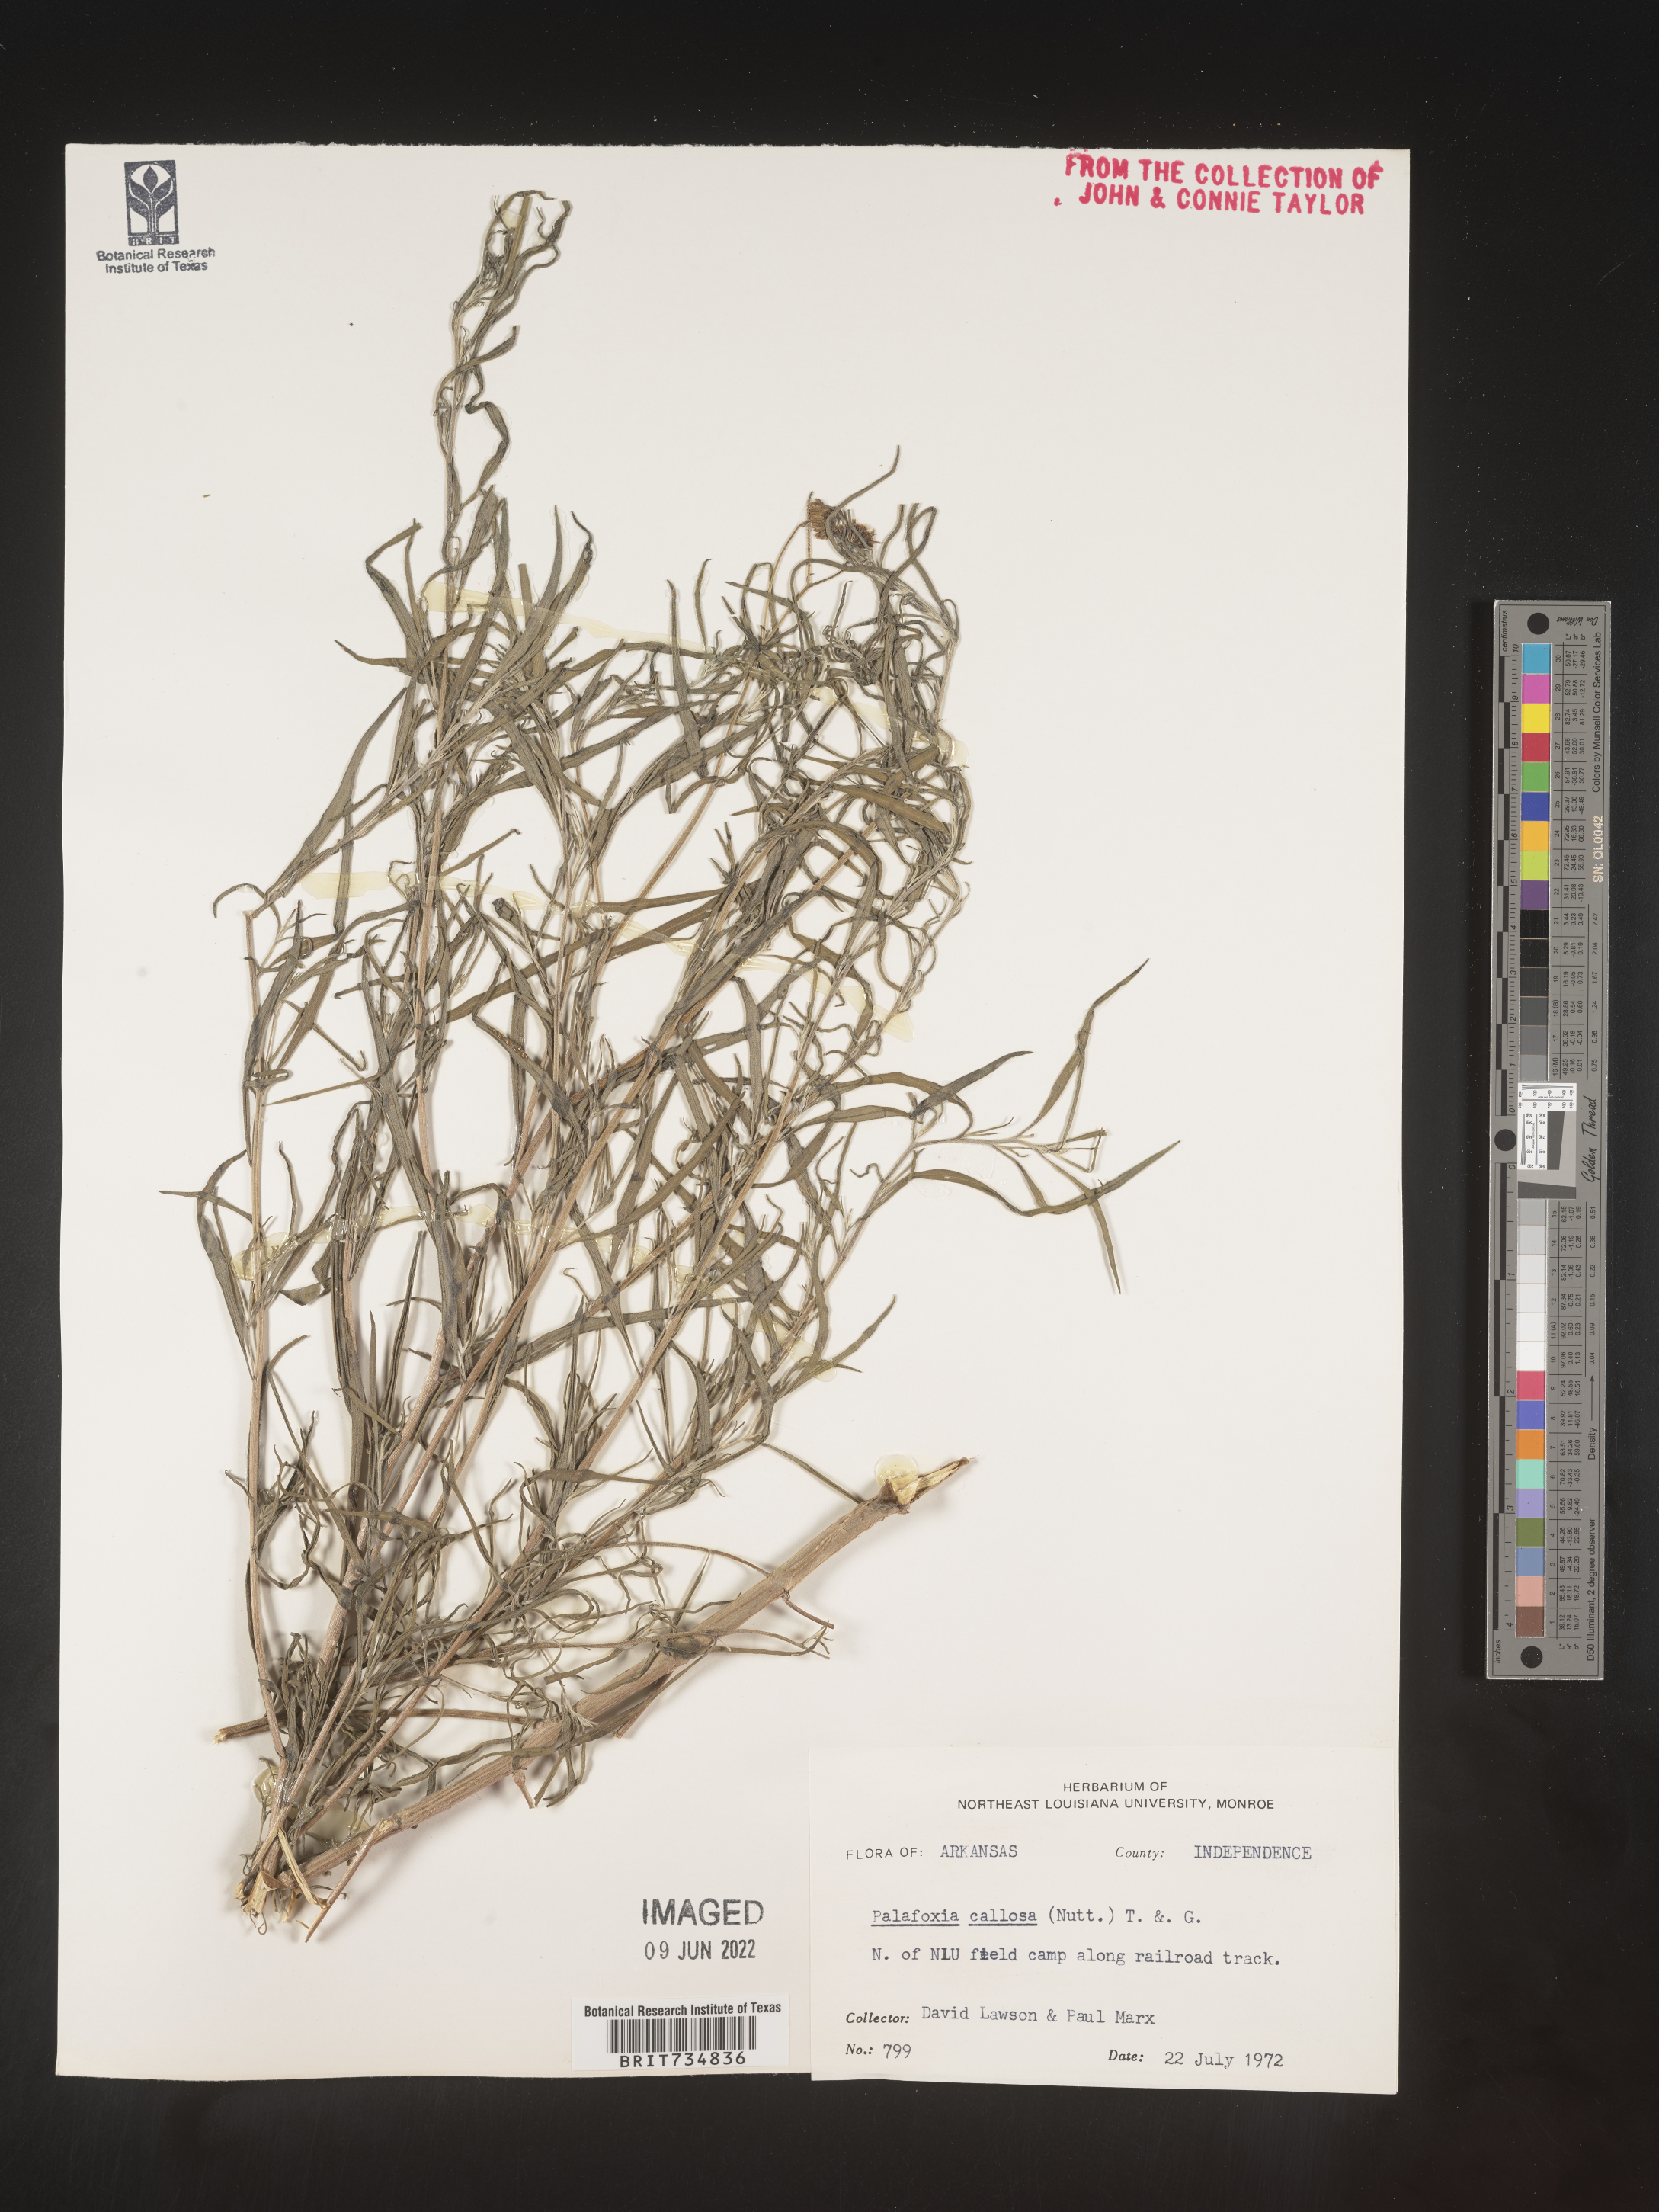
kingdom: Plantae
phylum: Tracheophyta
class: Magnoliopsida
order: Asterales
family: Asteraceae
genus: Palafoxia
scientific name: Palafoxia callosa
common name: Small palafox
